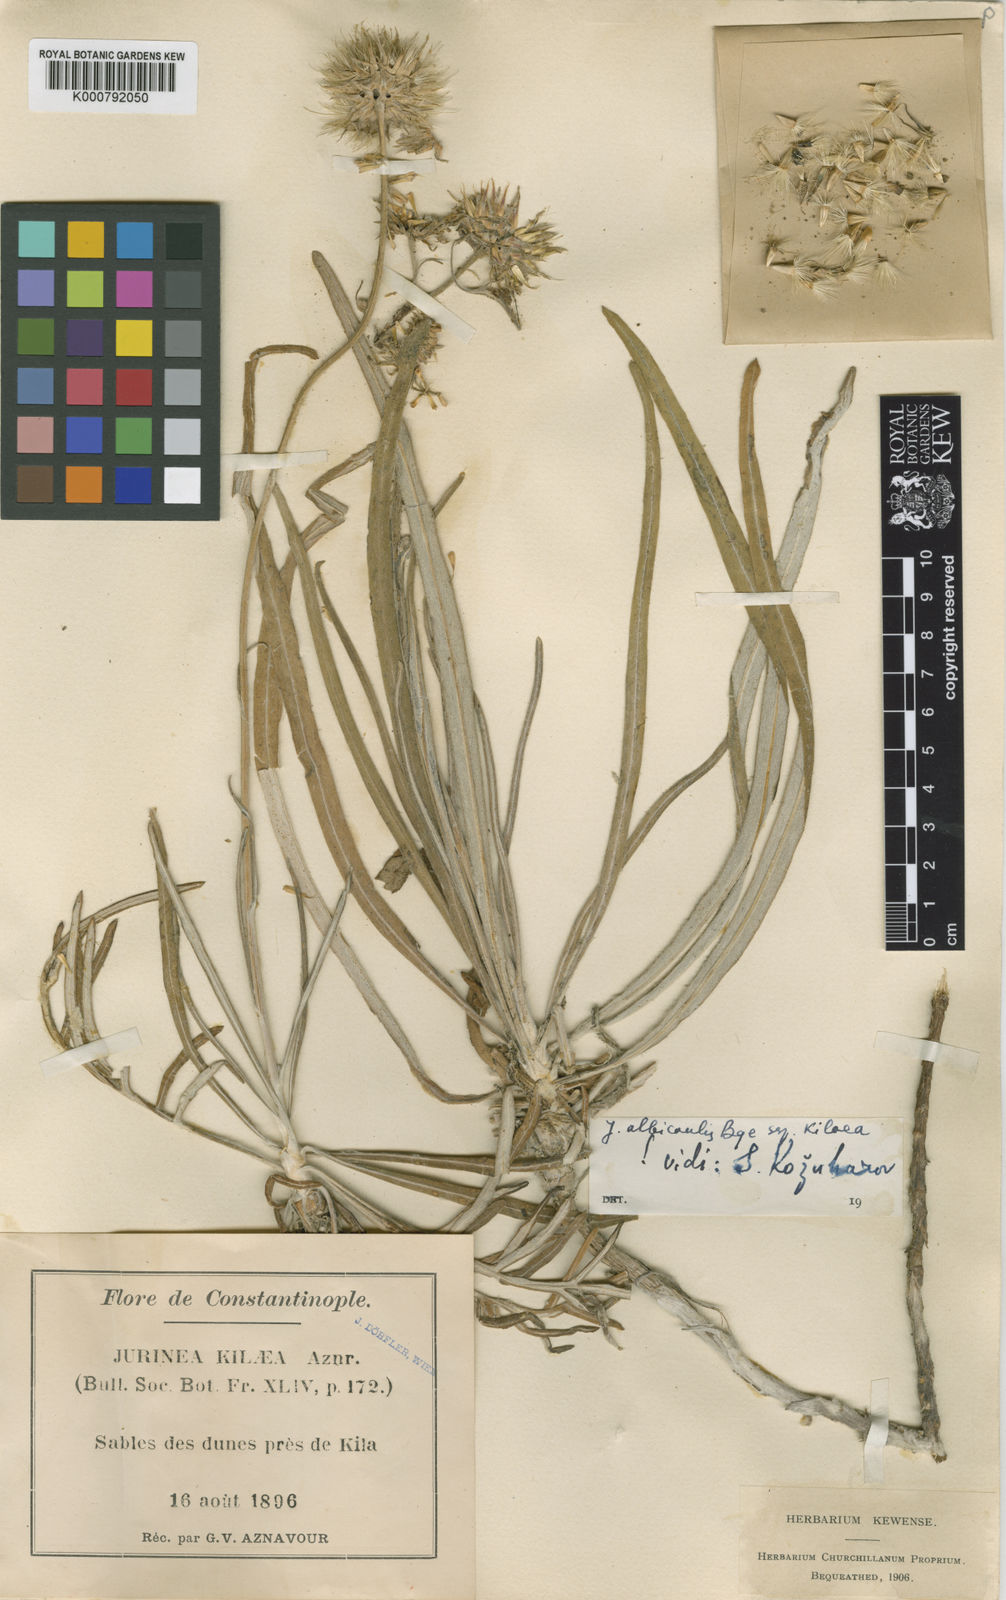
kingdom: Plantae
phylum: Tracheophyta
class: Magnoliopsida
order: Asterales
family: Asteraceae
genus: Jurinea
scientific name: Jurinea kilaea
